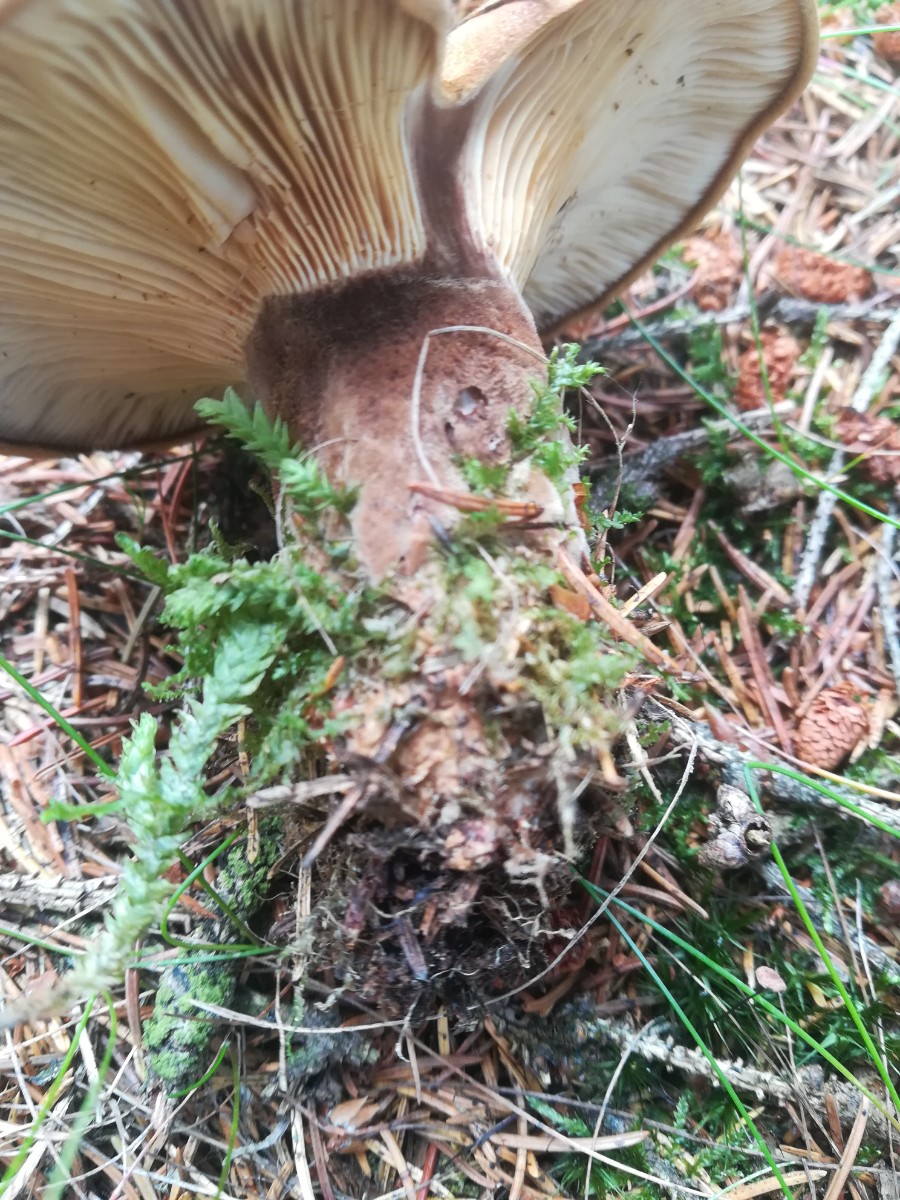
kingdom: Fungi
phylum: Basidiomycota
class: Agaricomycetes
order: Boletales
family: Tapinellaceae
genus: Tapinella
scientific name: Tapinella atrotomentosa
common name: sortfiltet viftesvamp
